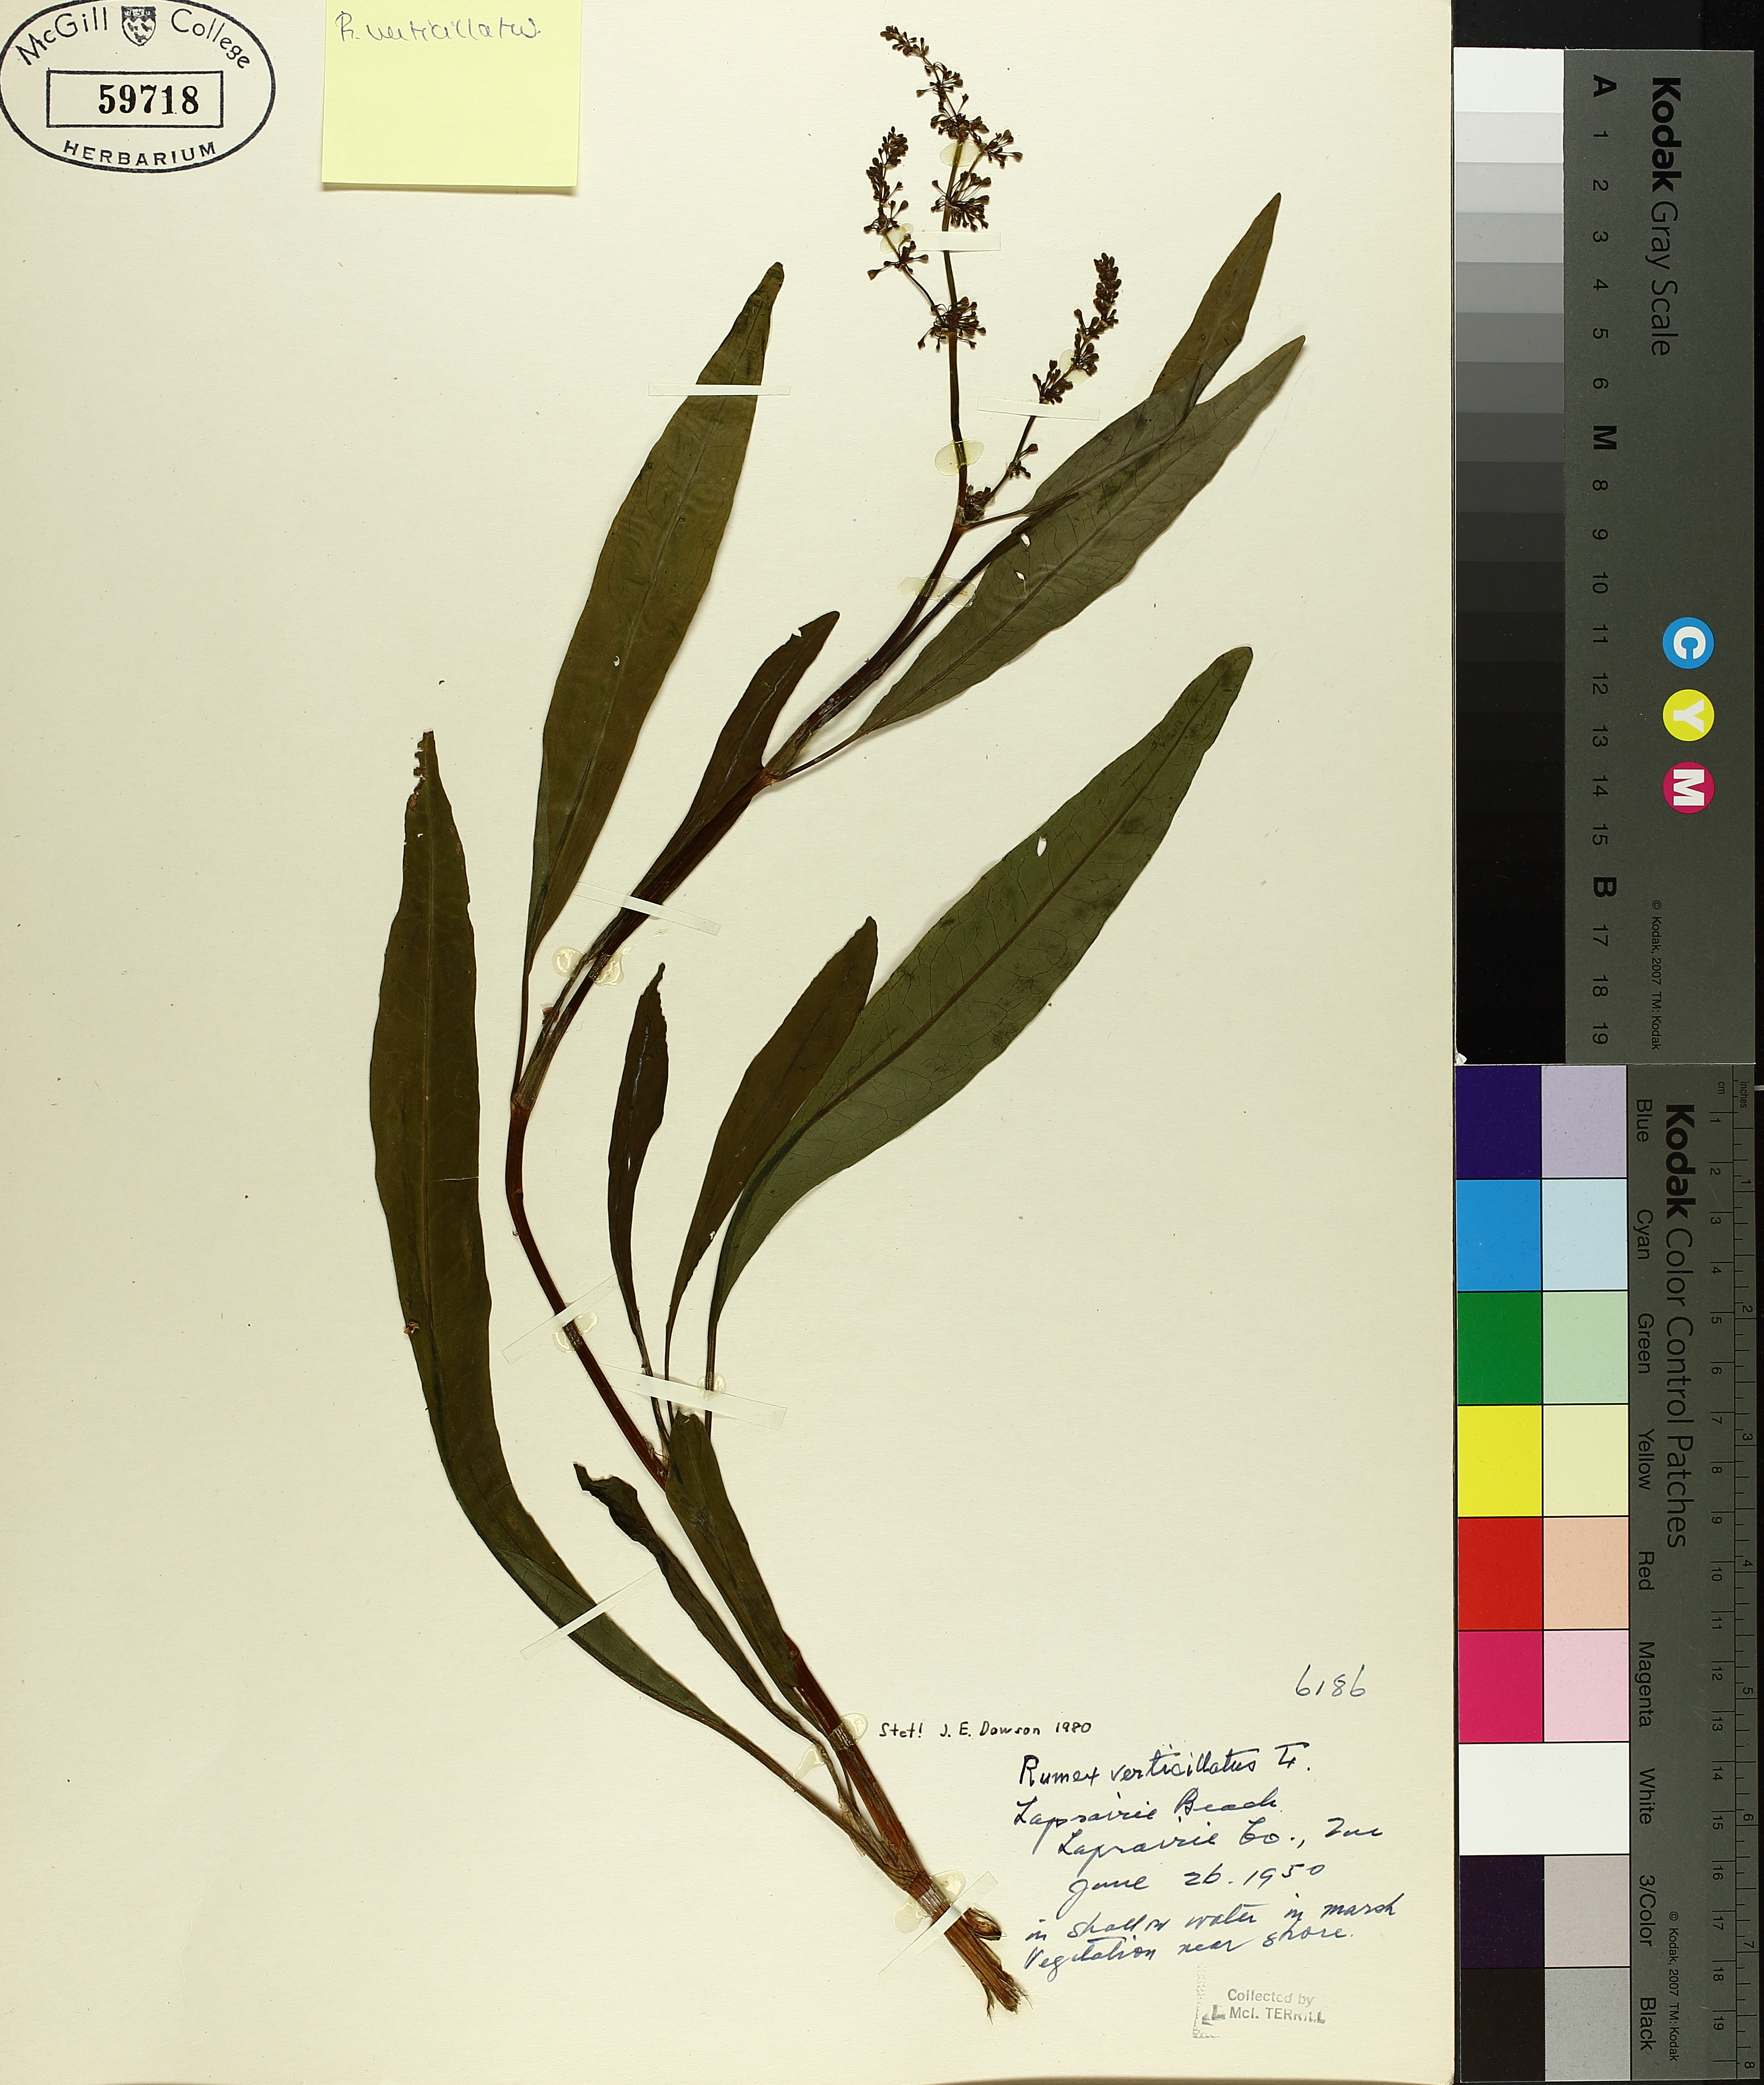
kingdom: Plantae
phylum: Tracheophyta
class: Magnoliopsida
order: Caryophyllales
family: Polygonaceae
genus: Rumex
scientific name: Rumex verticillatus
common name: Swamp dock
